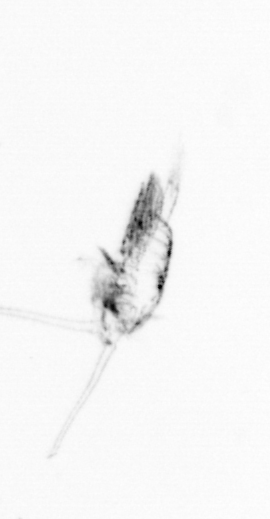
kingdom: Animalia
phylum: Arthropoda
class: Copepoda
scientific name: Copepoda
